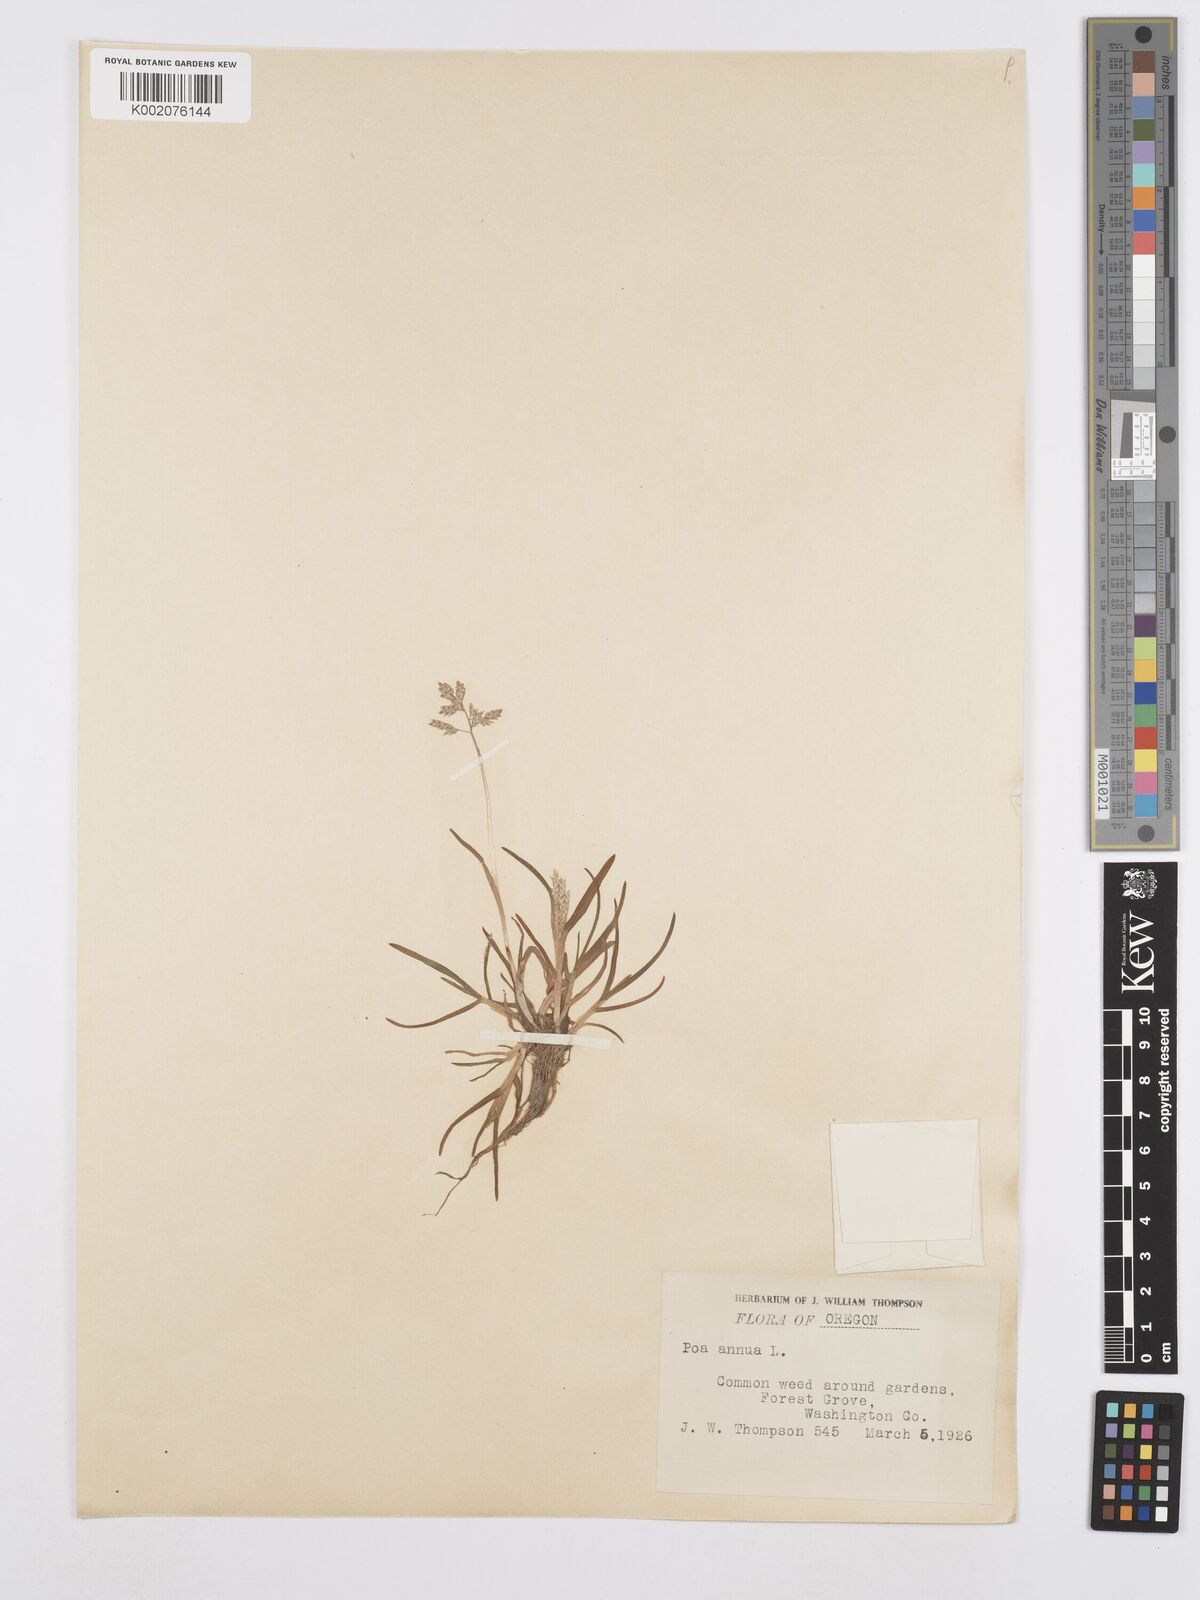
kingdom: Plantae
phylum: Tracheophyta
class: Liliopsida
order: Poales
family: Poaceae
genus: Poa
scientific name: Poa annua
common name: Annual bluegrass
